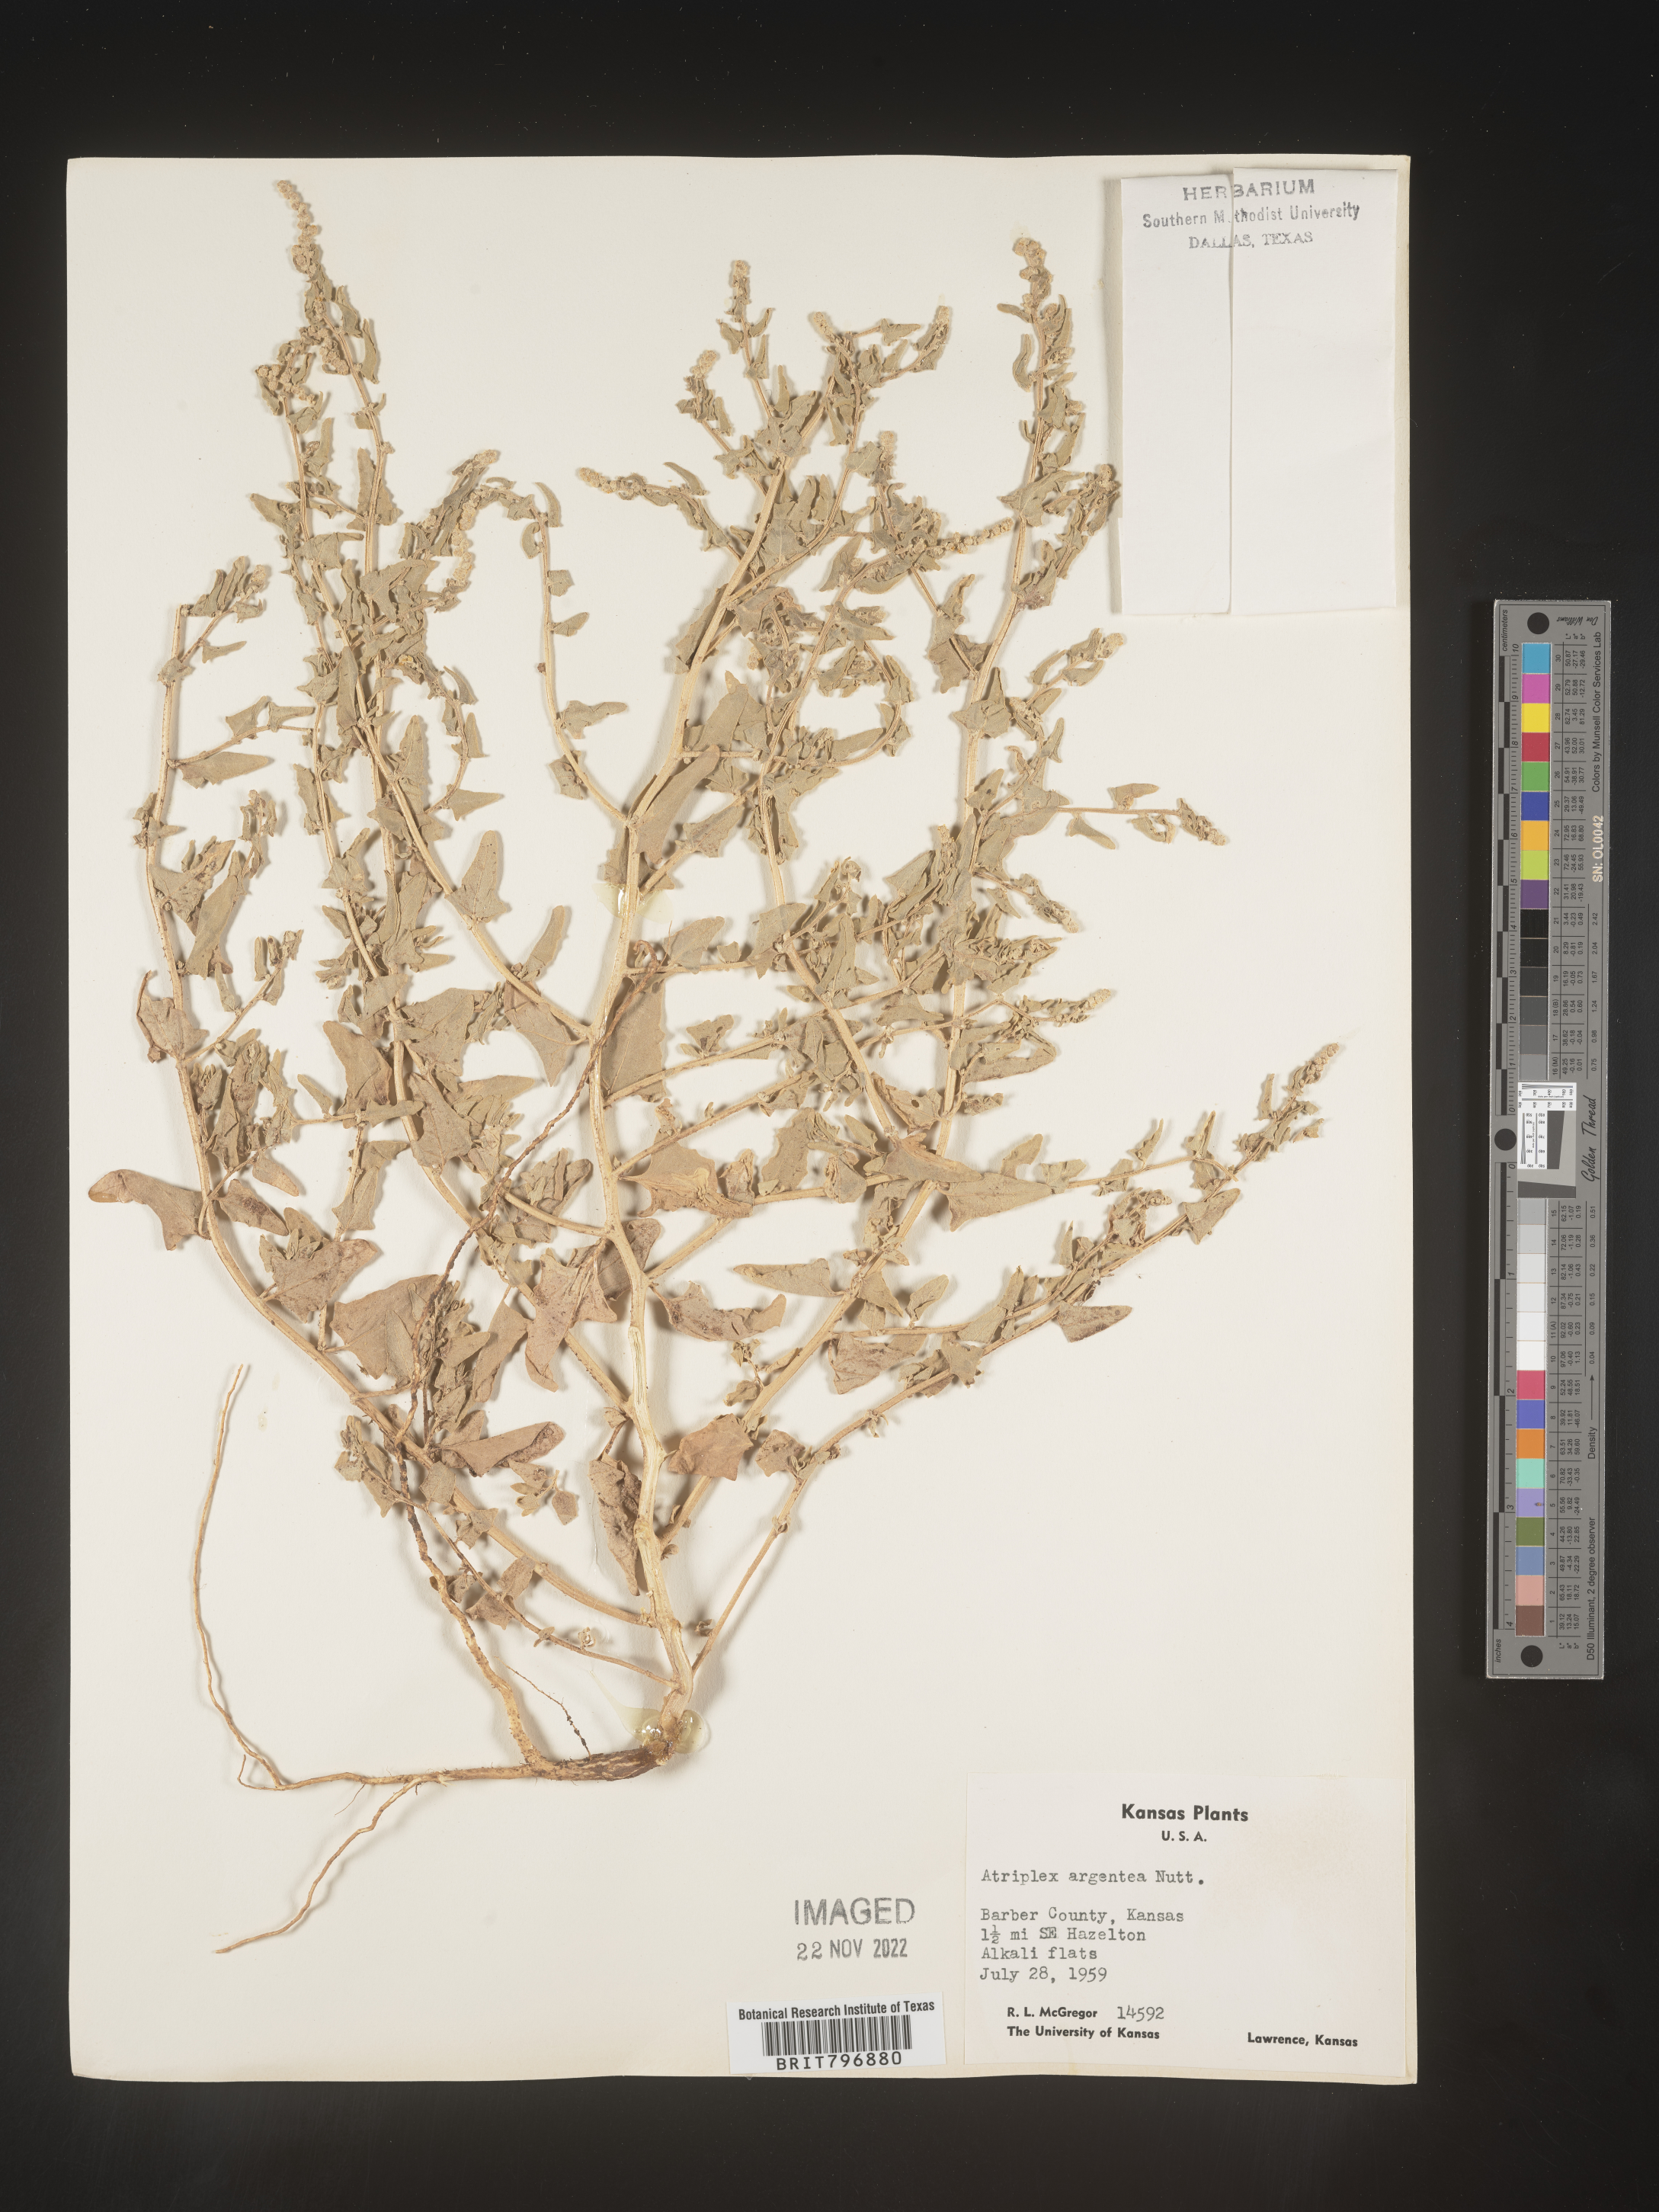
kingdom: Plantae
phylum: Tracheophyta
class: Magnoliopsida
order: Caryophyllales
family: Amaranthaceae
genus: Atriplex
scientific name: Atriplex argentea
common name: Silverscale
